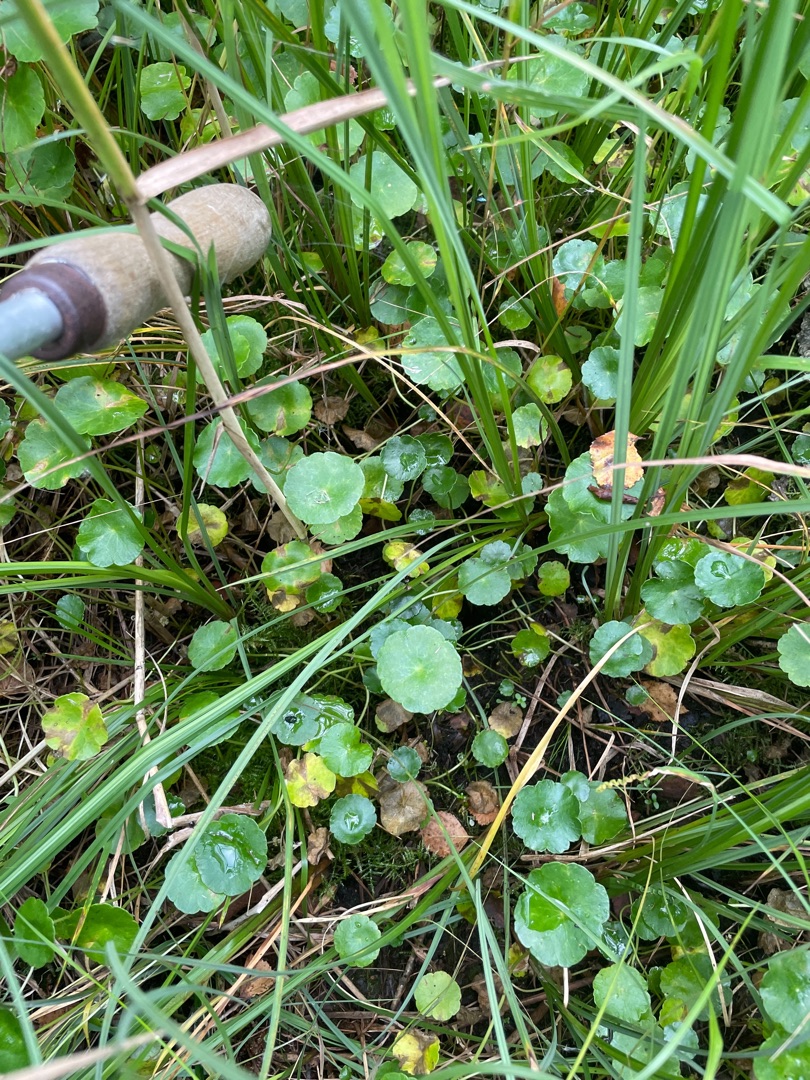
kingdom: Plantae
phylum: Tracheophyta
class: Magnoliopsida
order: Apiales
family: Araliaceae
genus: Hydrocotyle
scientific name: Hydrocotyle vulgaris
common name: Vandnavle
